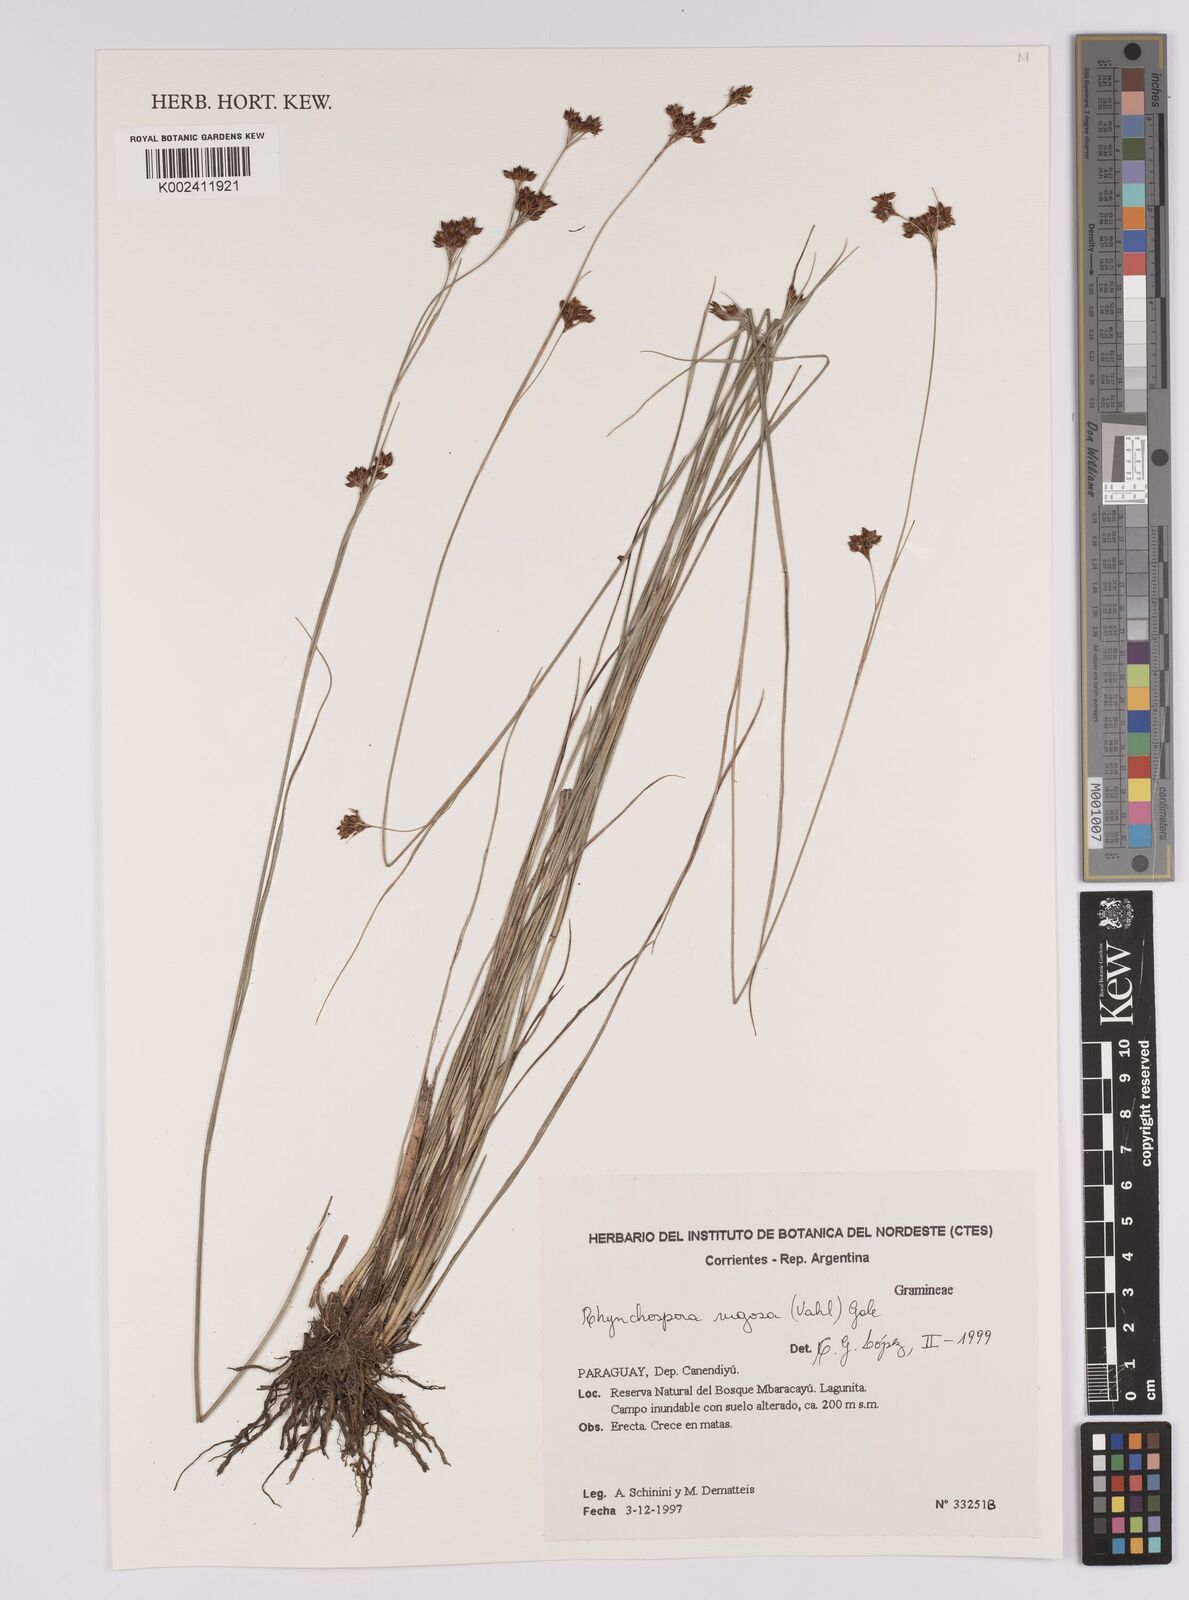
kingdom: Plantae
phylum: Tracheophyta
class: Liliopsida
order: Poales
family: Cyperaceae
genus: Rhynchospora
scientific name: Rhynchospora rugosa
